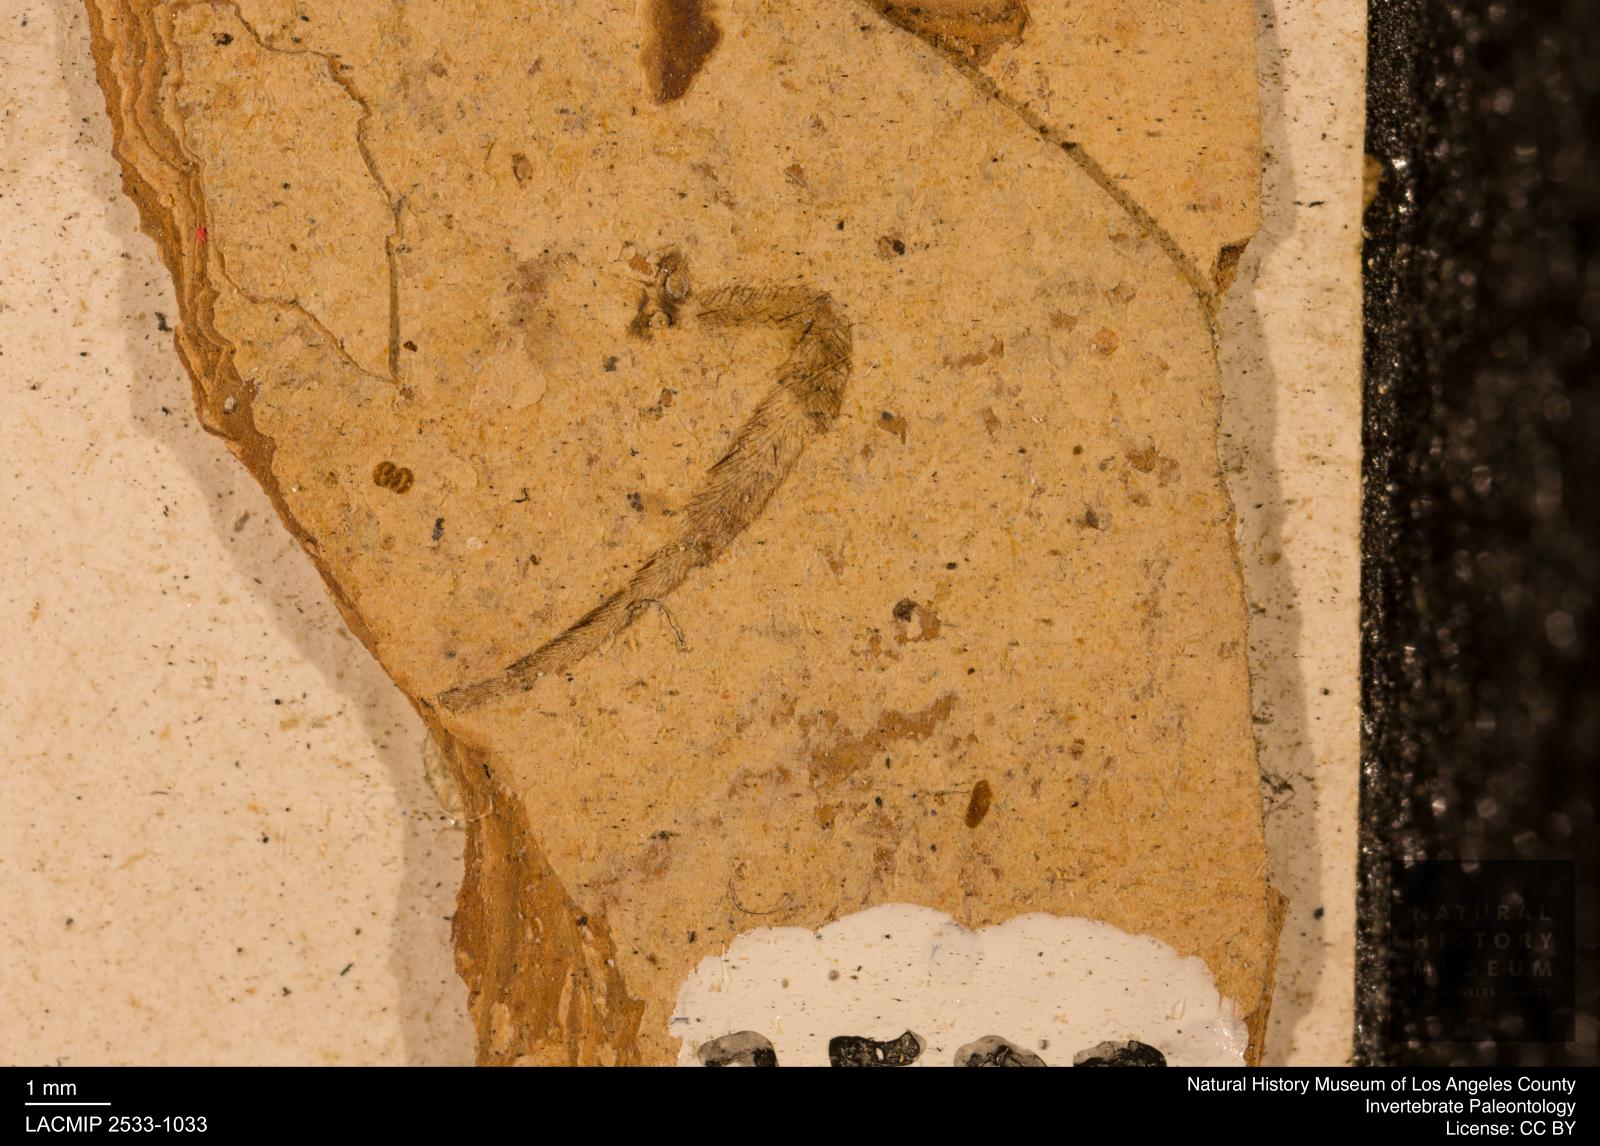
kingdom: Animalia
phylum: Arthropoda
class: Arachnida
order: Araneae
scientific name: Araneae
